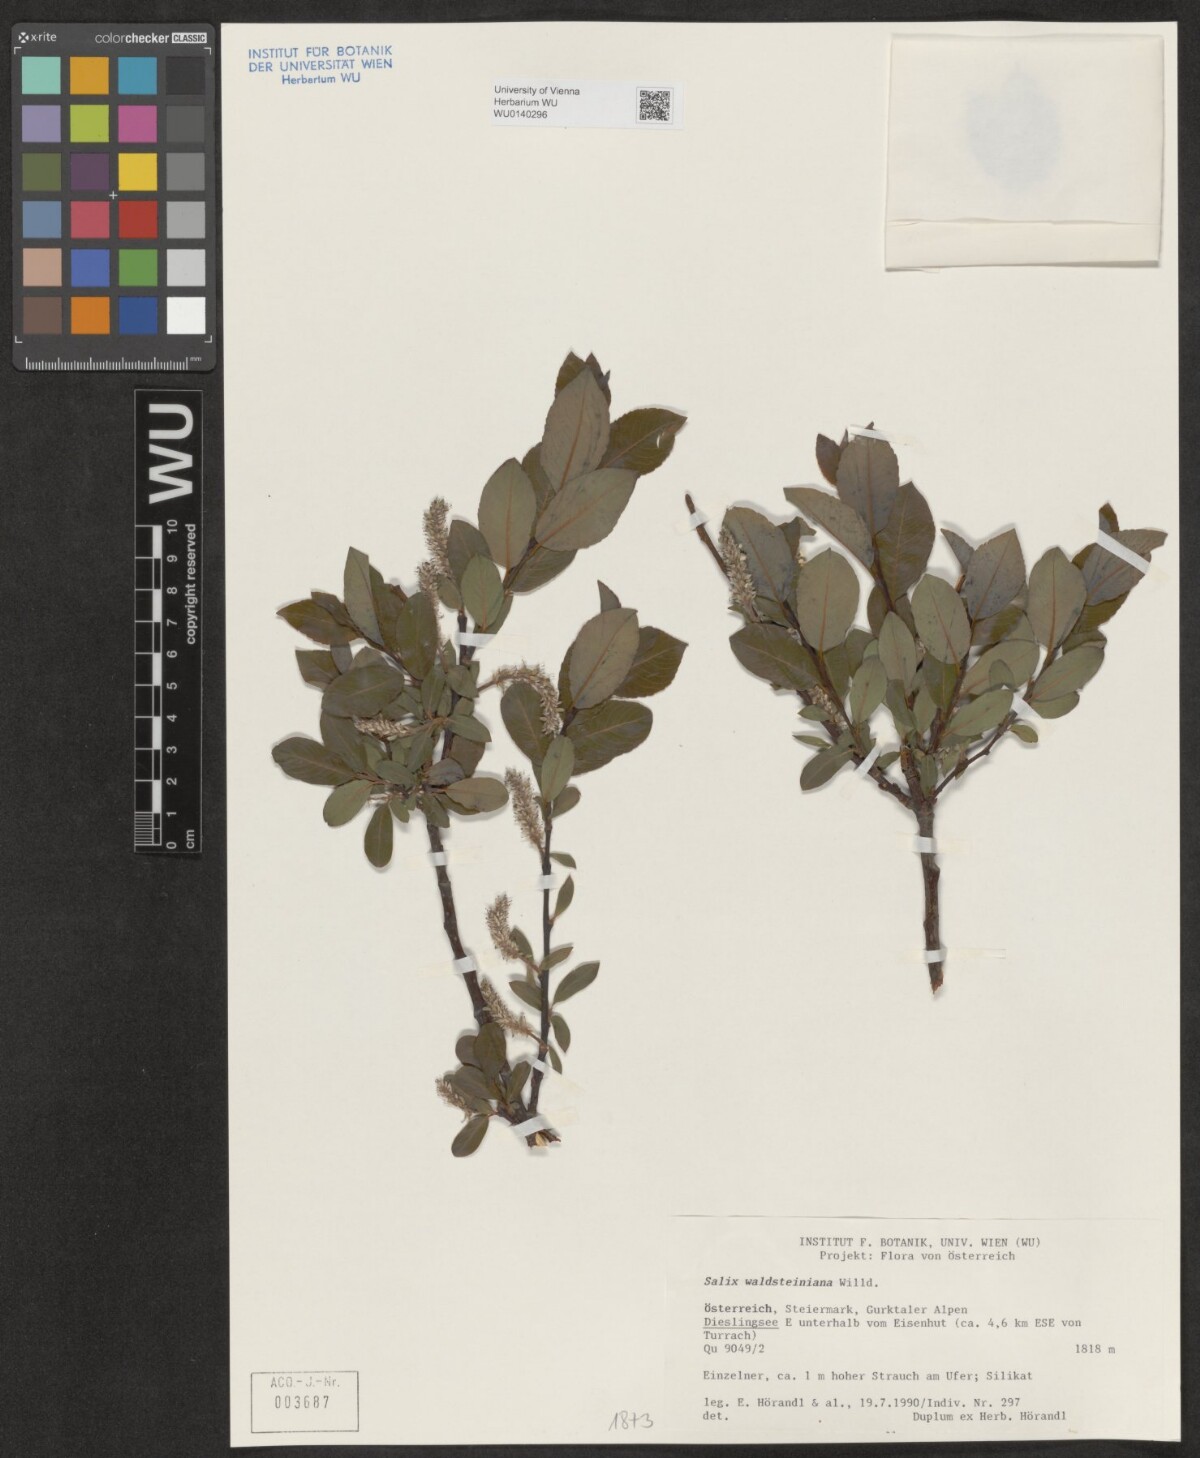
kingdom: Plantae
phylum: Tracheophyta
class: Magnoliopsida
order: Malpighiales
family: Salicaceae
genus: Salix
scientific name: Salix waldsteiniana
